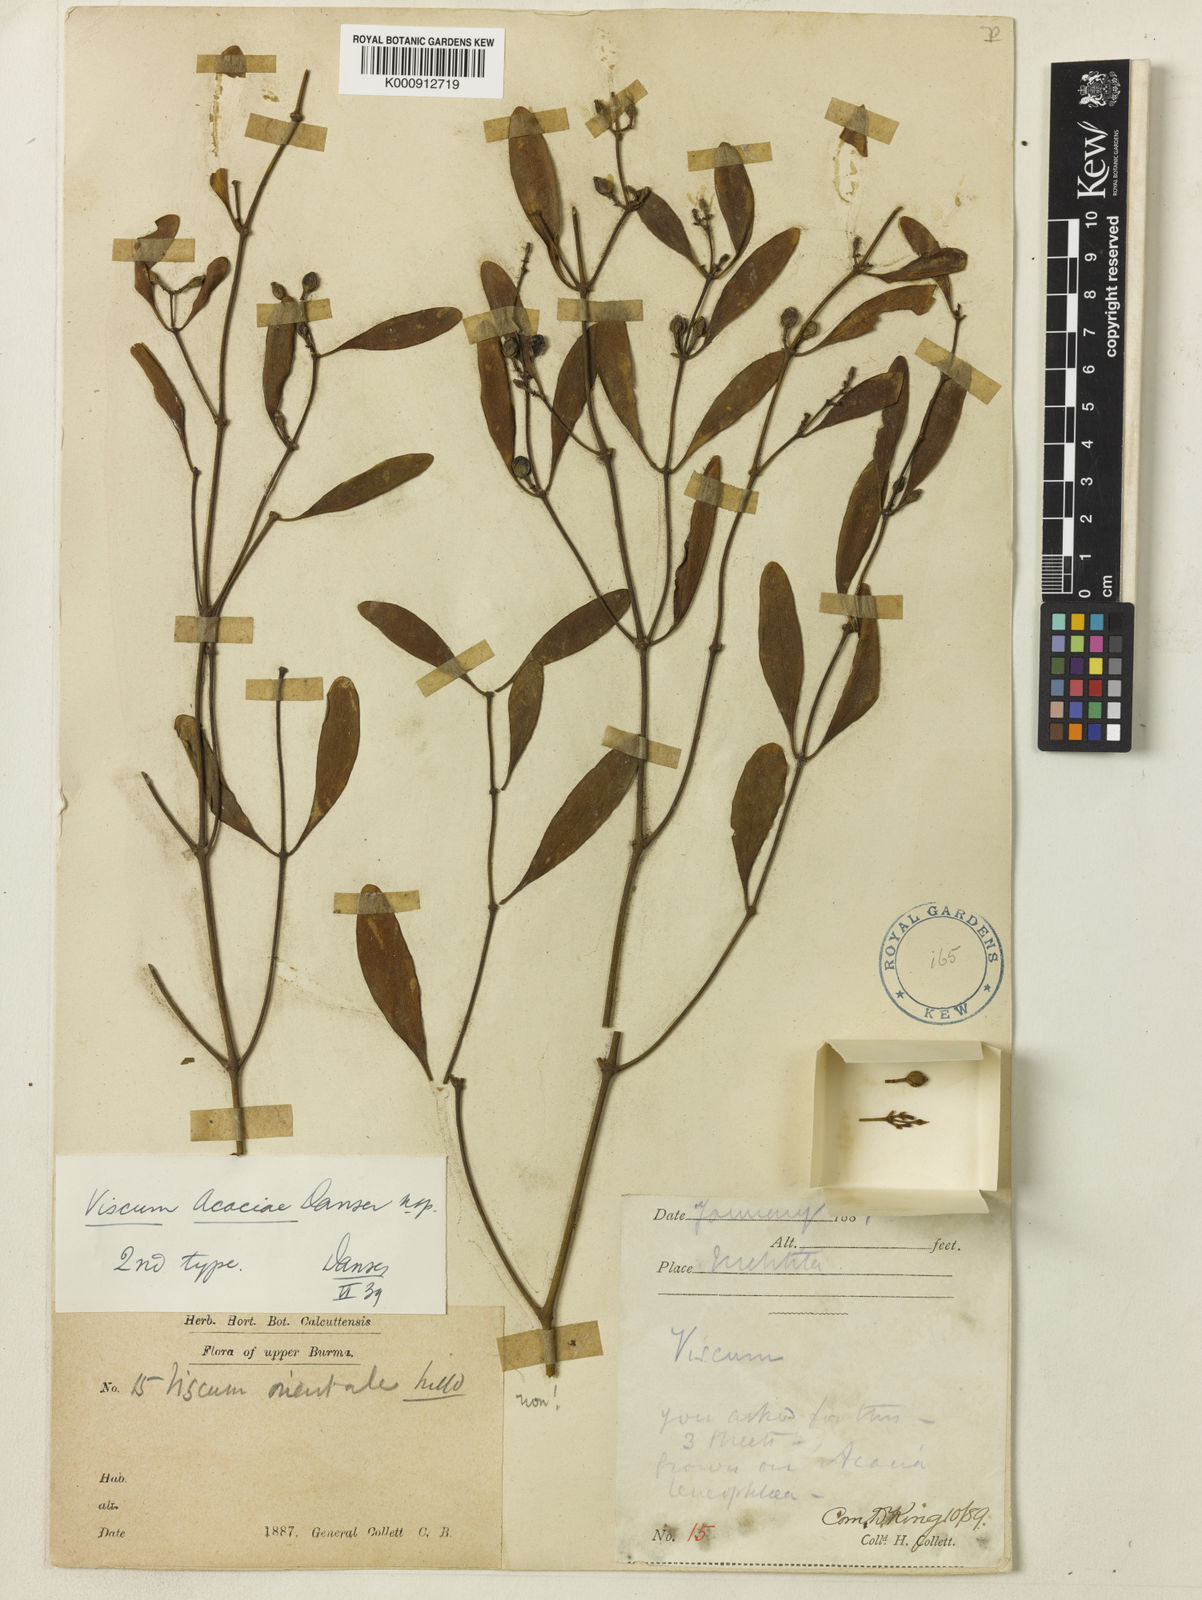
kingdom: Plantae
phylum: Tracheophyta
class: Magnoliopsida
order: Santalales
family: Viscaceae
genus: Viscum
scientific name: Viscum acaciae
